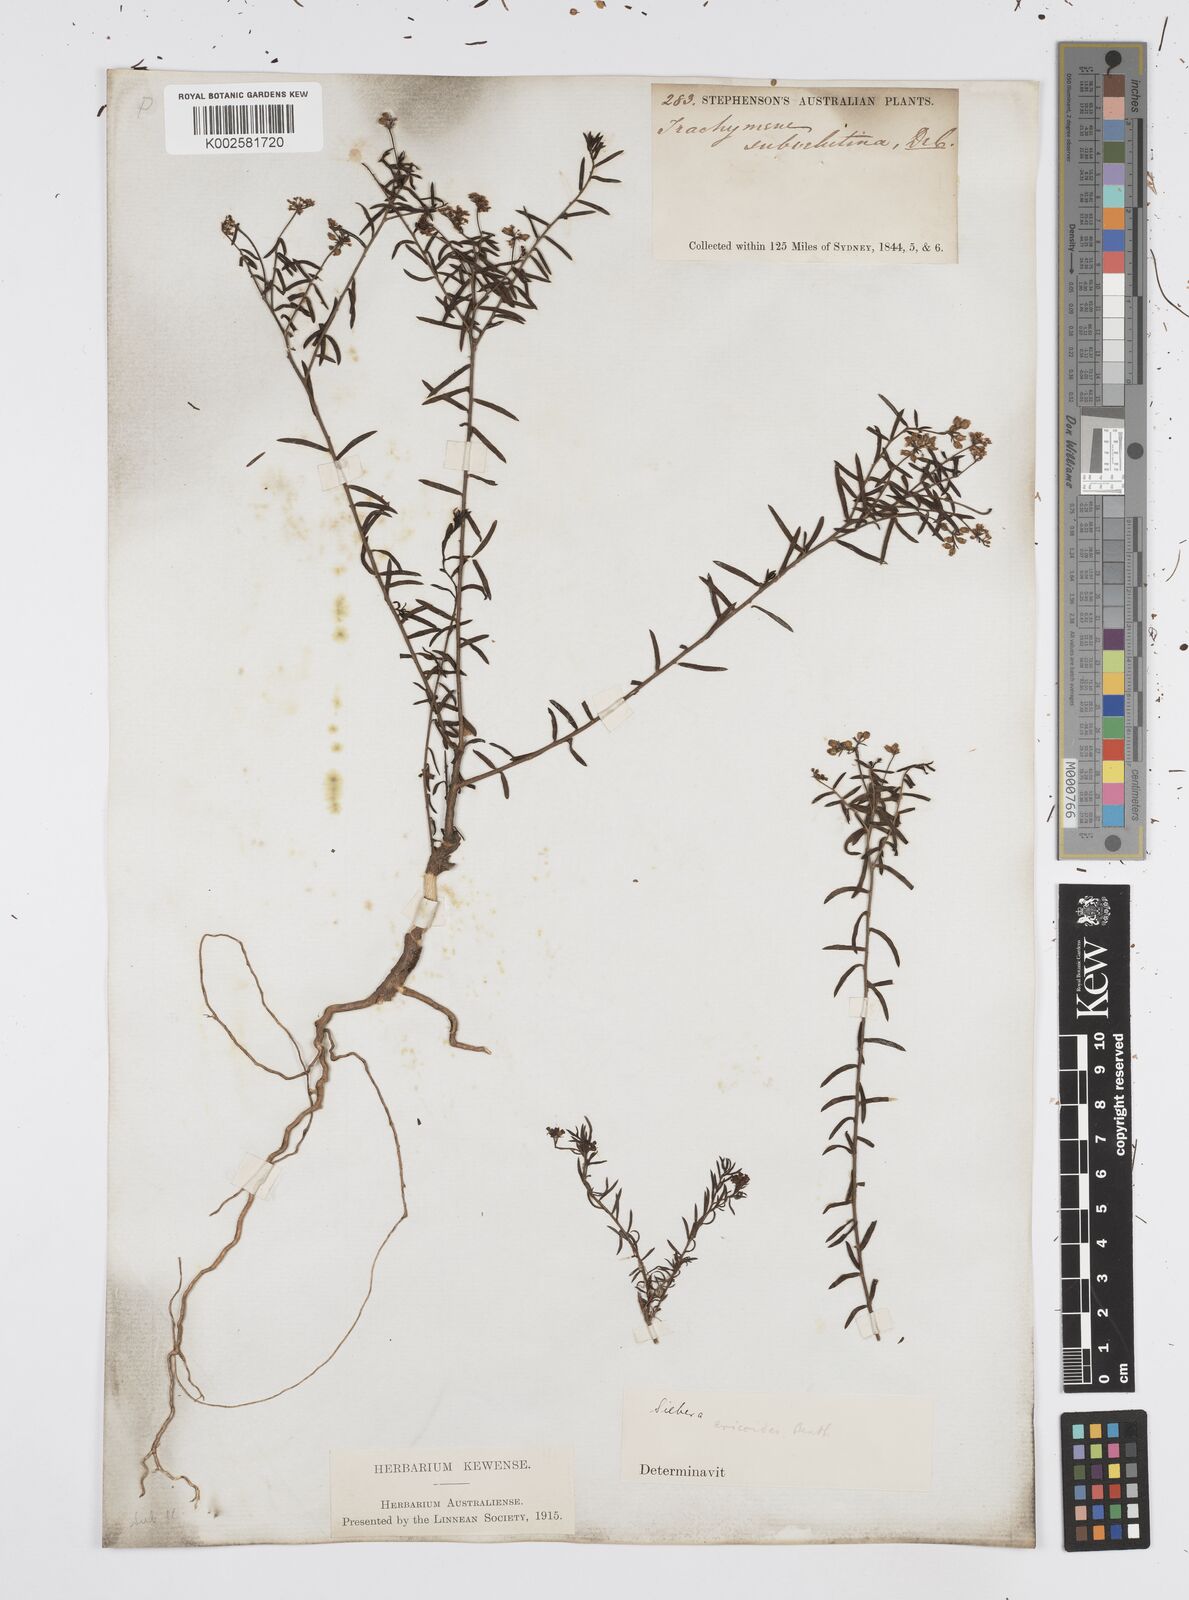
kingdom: Plantae
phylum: Tracheophyta
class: Magnoliopsida
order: Apiales
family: Apiaceae
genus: Platysace
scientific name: Platysace ericoides
